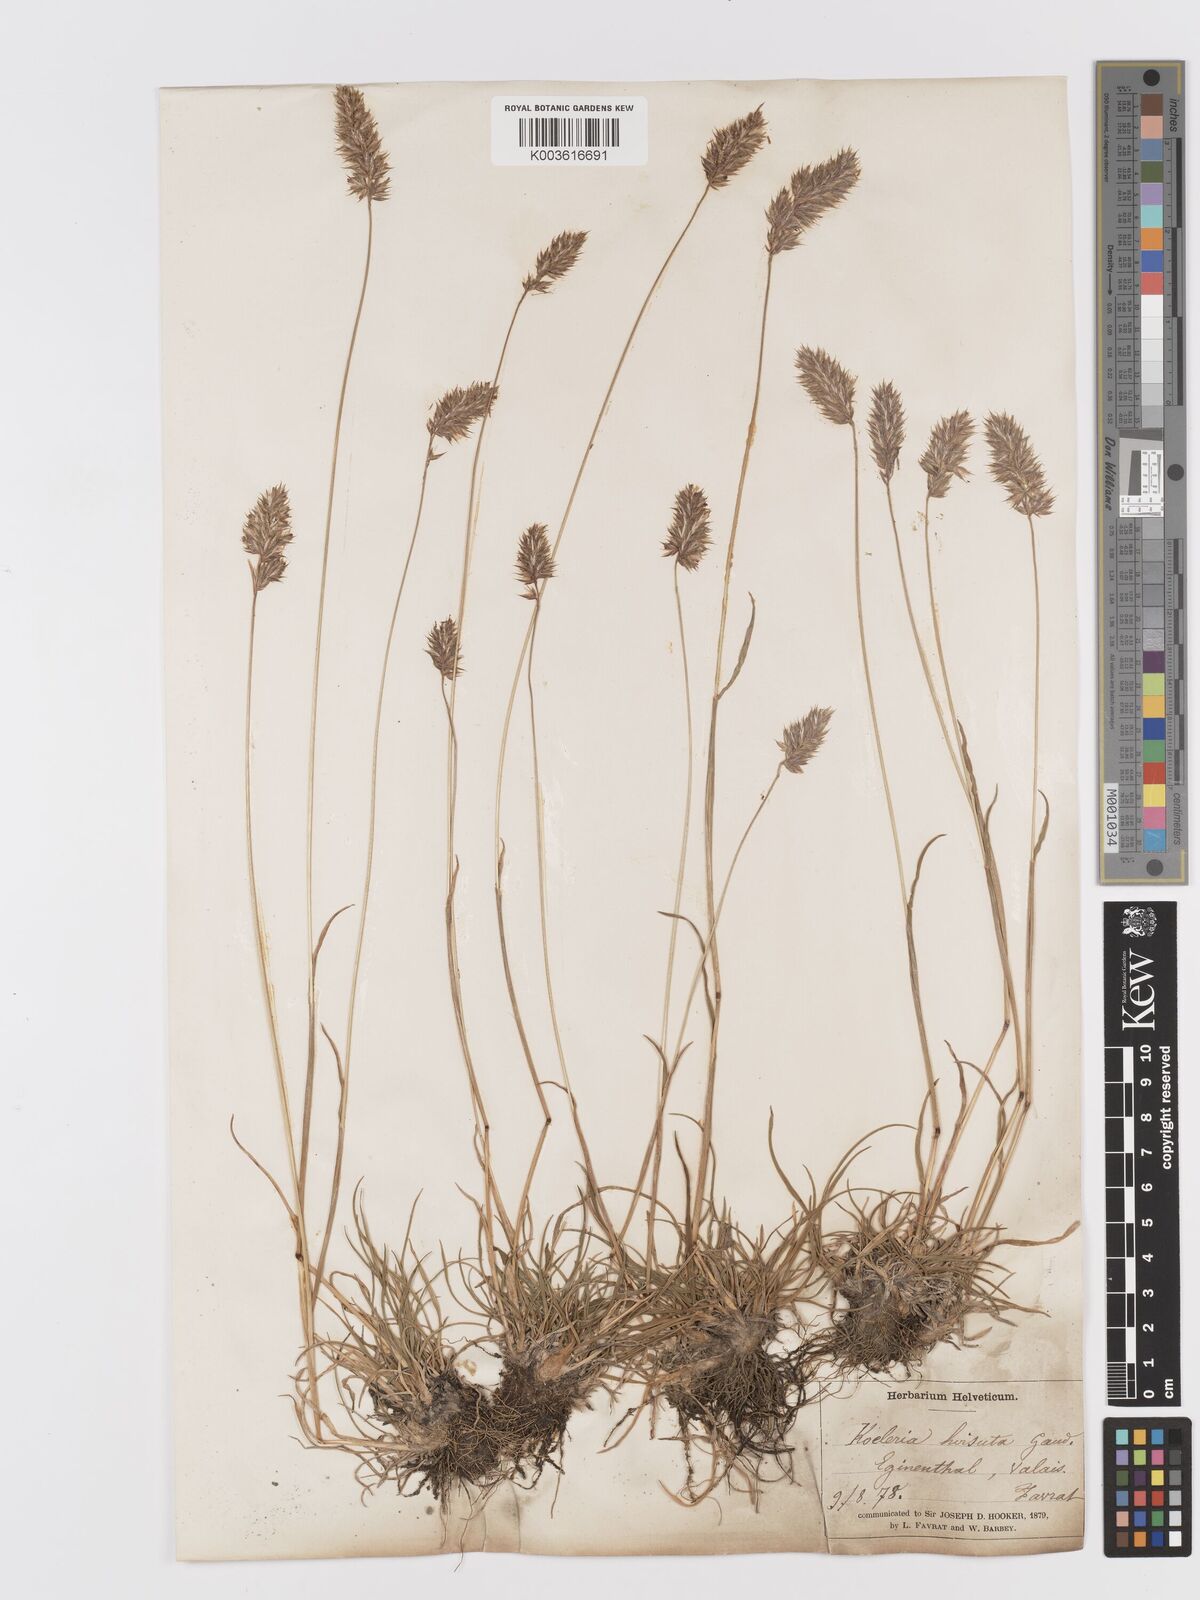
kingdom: Plantae
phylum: Tracheophyta
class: Liliopsida
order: Poales
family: Poaceae
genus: Koeleria
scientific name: Koeleria hirsuta
